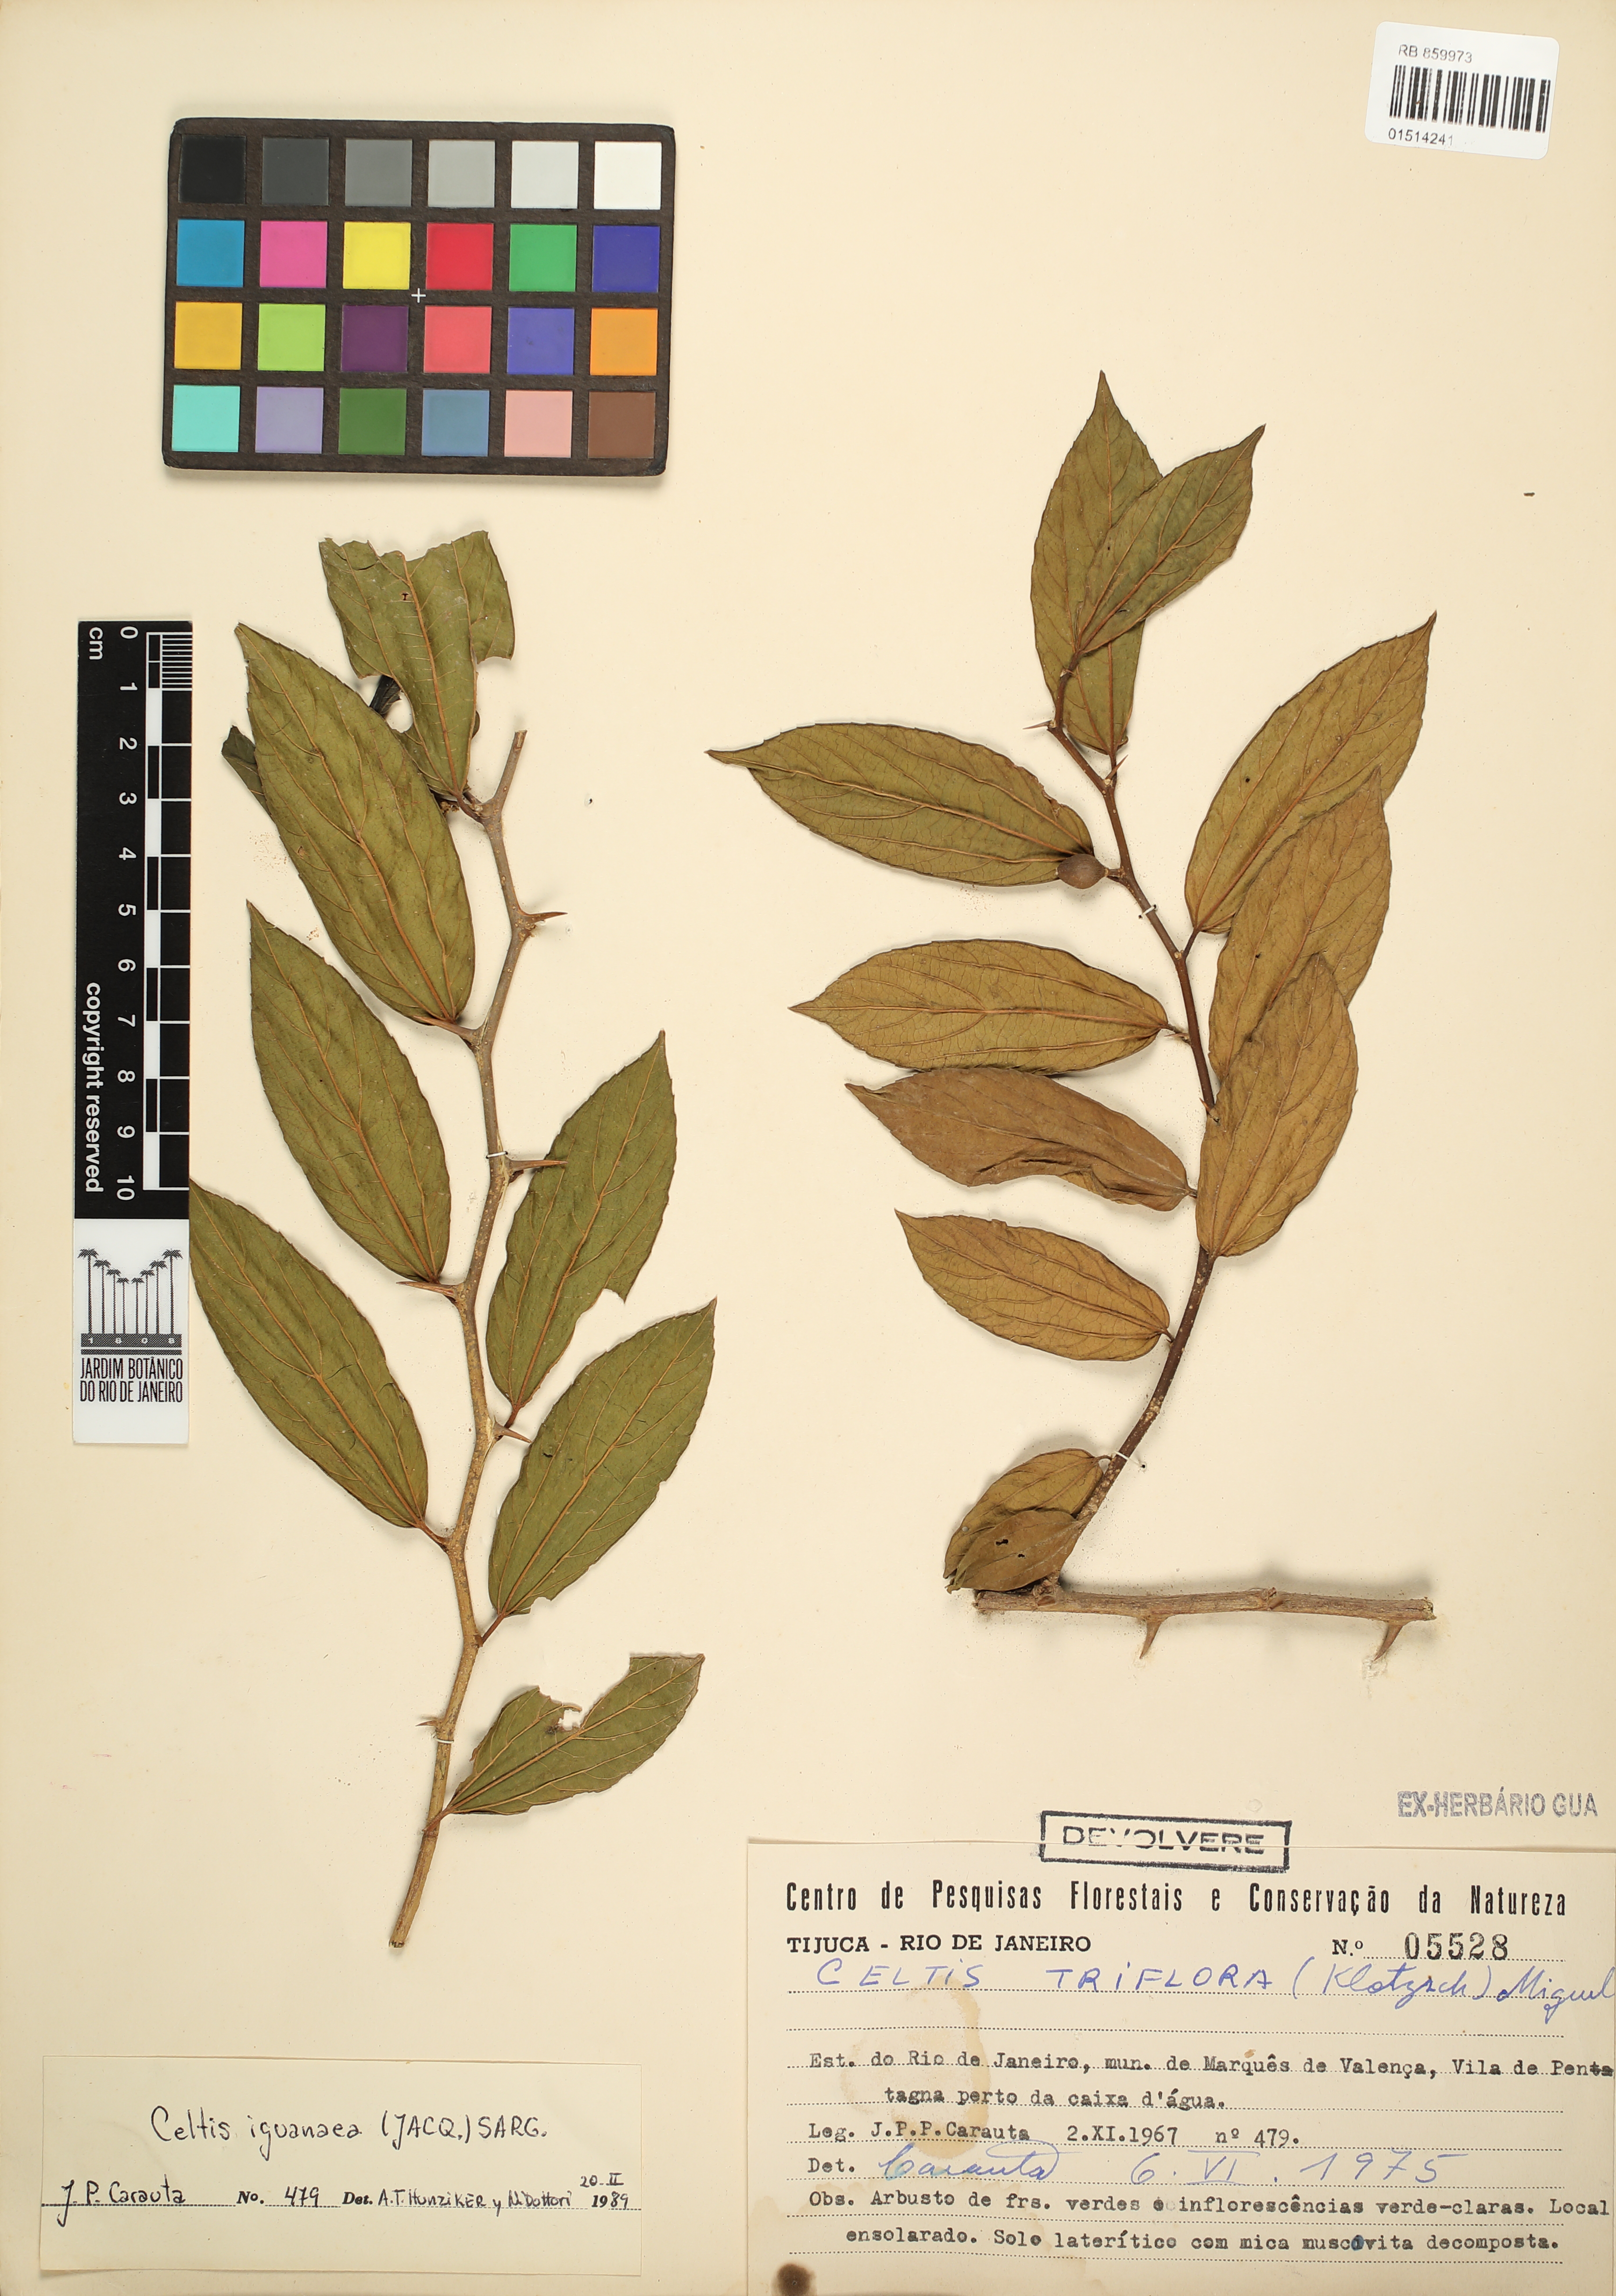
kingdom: Plantae
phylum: Tracheophyta
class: Magnoliopsida
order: Rosales
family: Cannabaceae
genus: Celtis
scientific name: Celtis iguanaea
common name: Iguana hackberry
